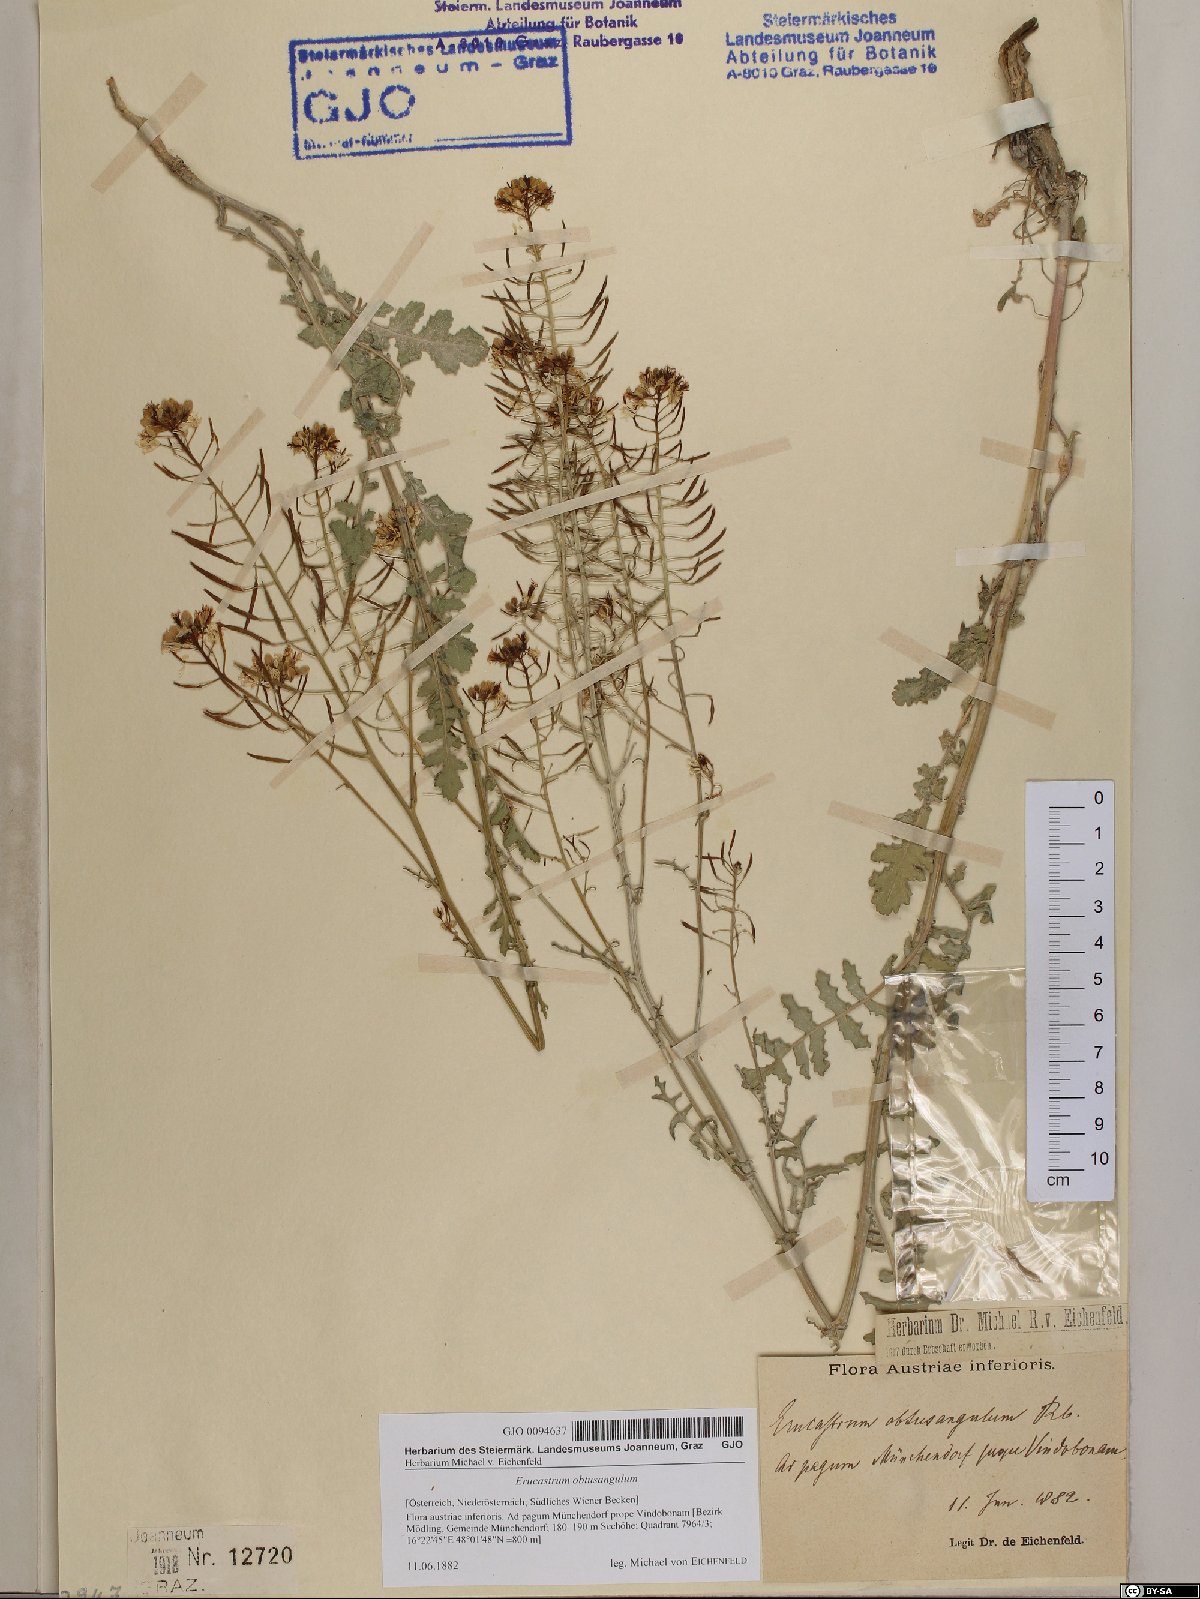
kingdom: Plantae
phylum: Tracheophyta
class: Magnoliopsida
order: Brassicales
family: Brassicaceae
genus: Erucastrum
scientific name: Erucastrum nasturtiifolium
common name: Watercress-leaf rocket
